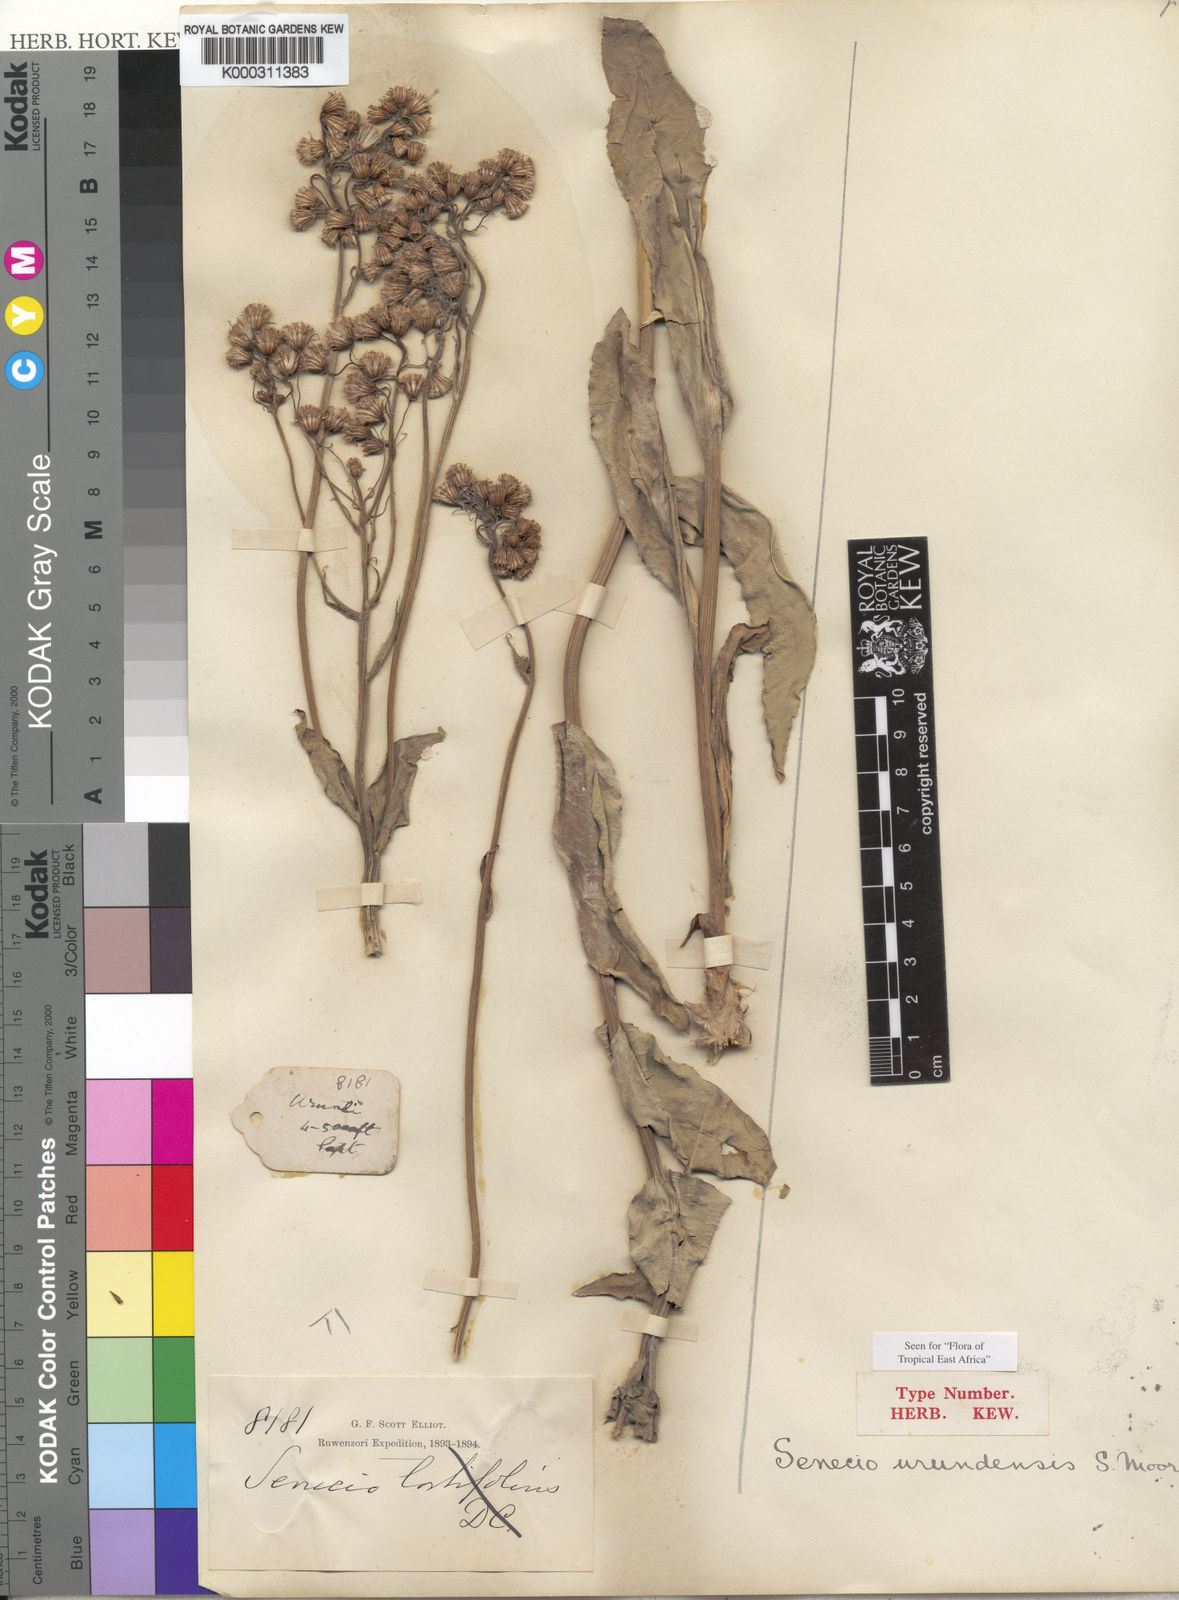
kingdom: Plantae
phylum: Tracheophyta
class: Magnoliopsida
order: Asterales
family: Asteraceae
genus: Senecio
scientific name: Senecio urundensis
